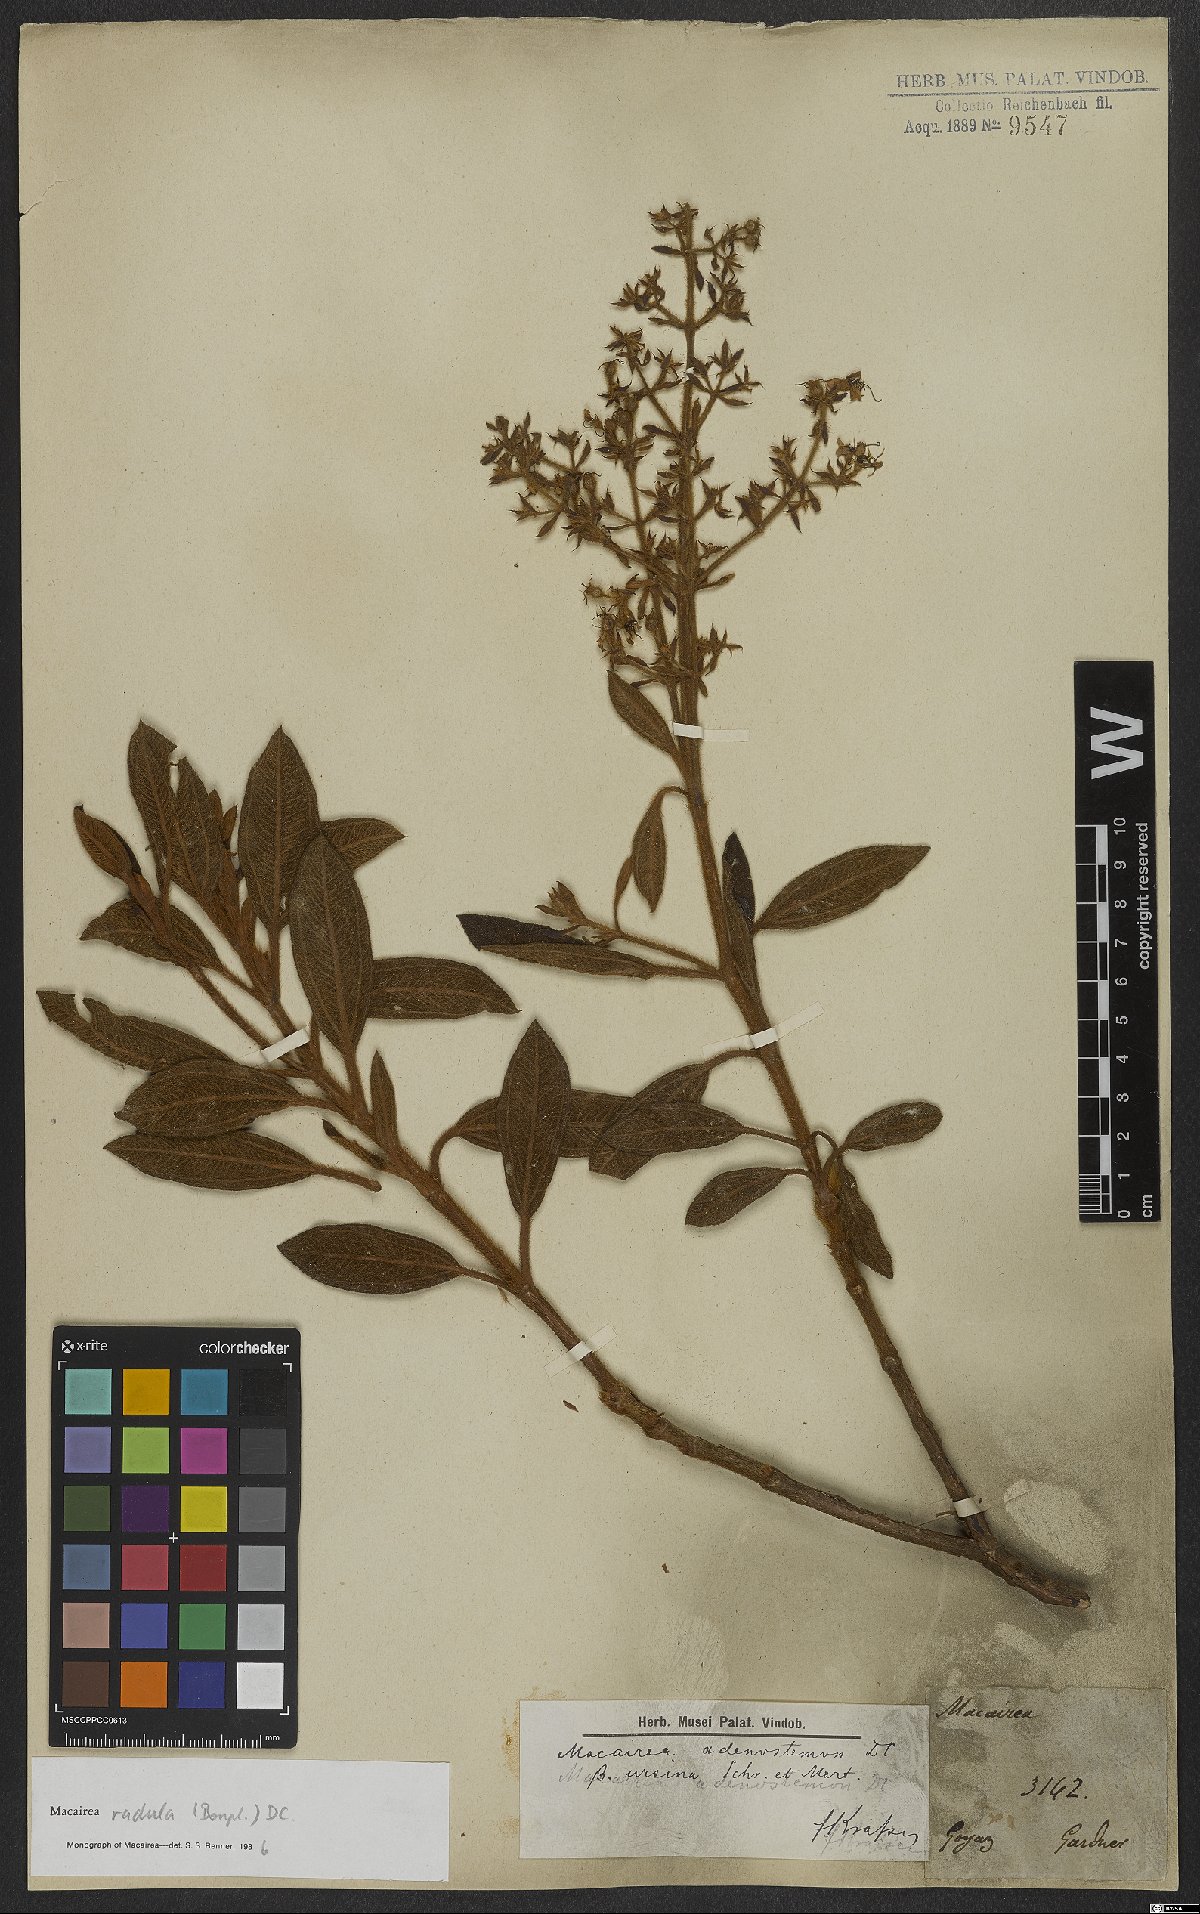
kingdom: Plantae
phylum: Tracheophyta
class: Magnoliopsida
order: Myrtales
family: Melastomataceae
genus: Macairea
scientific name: Macairea radula
